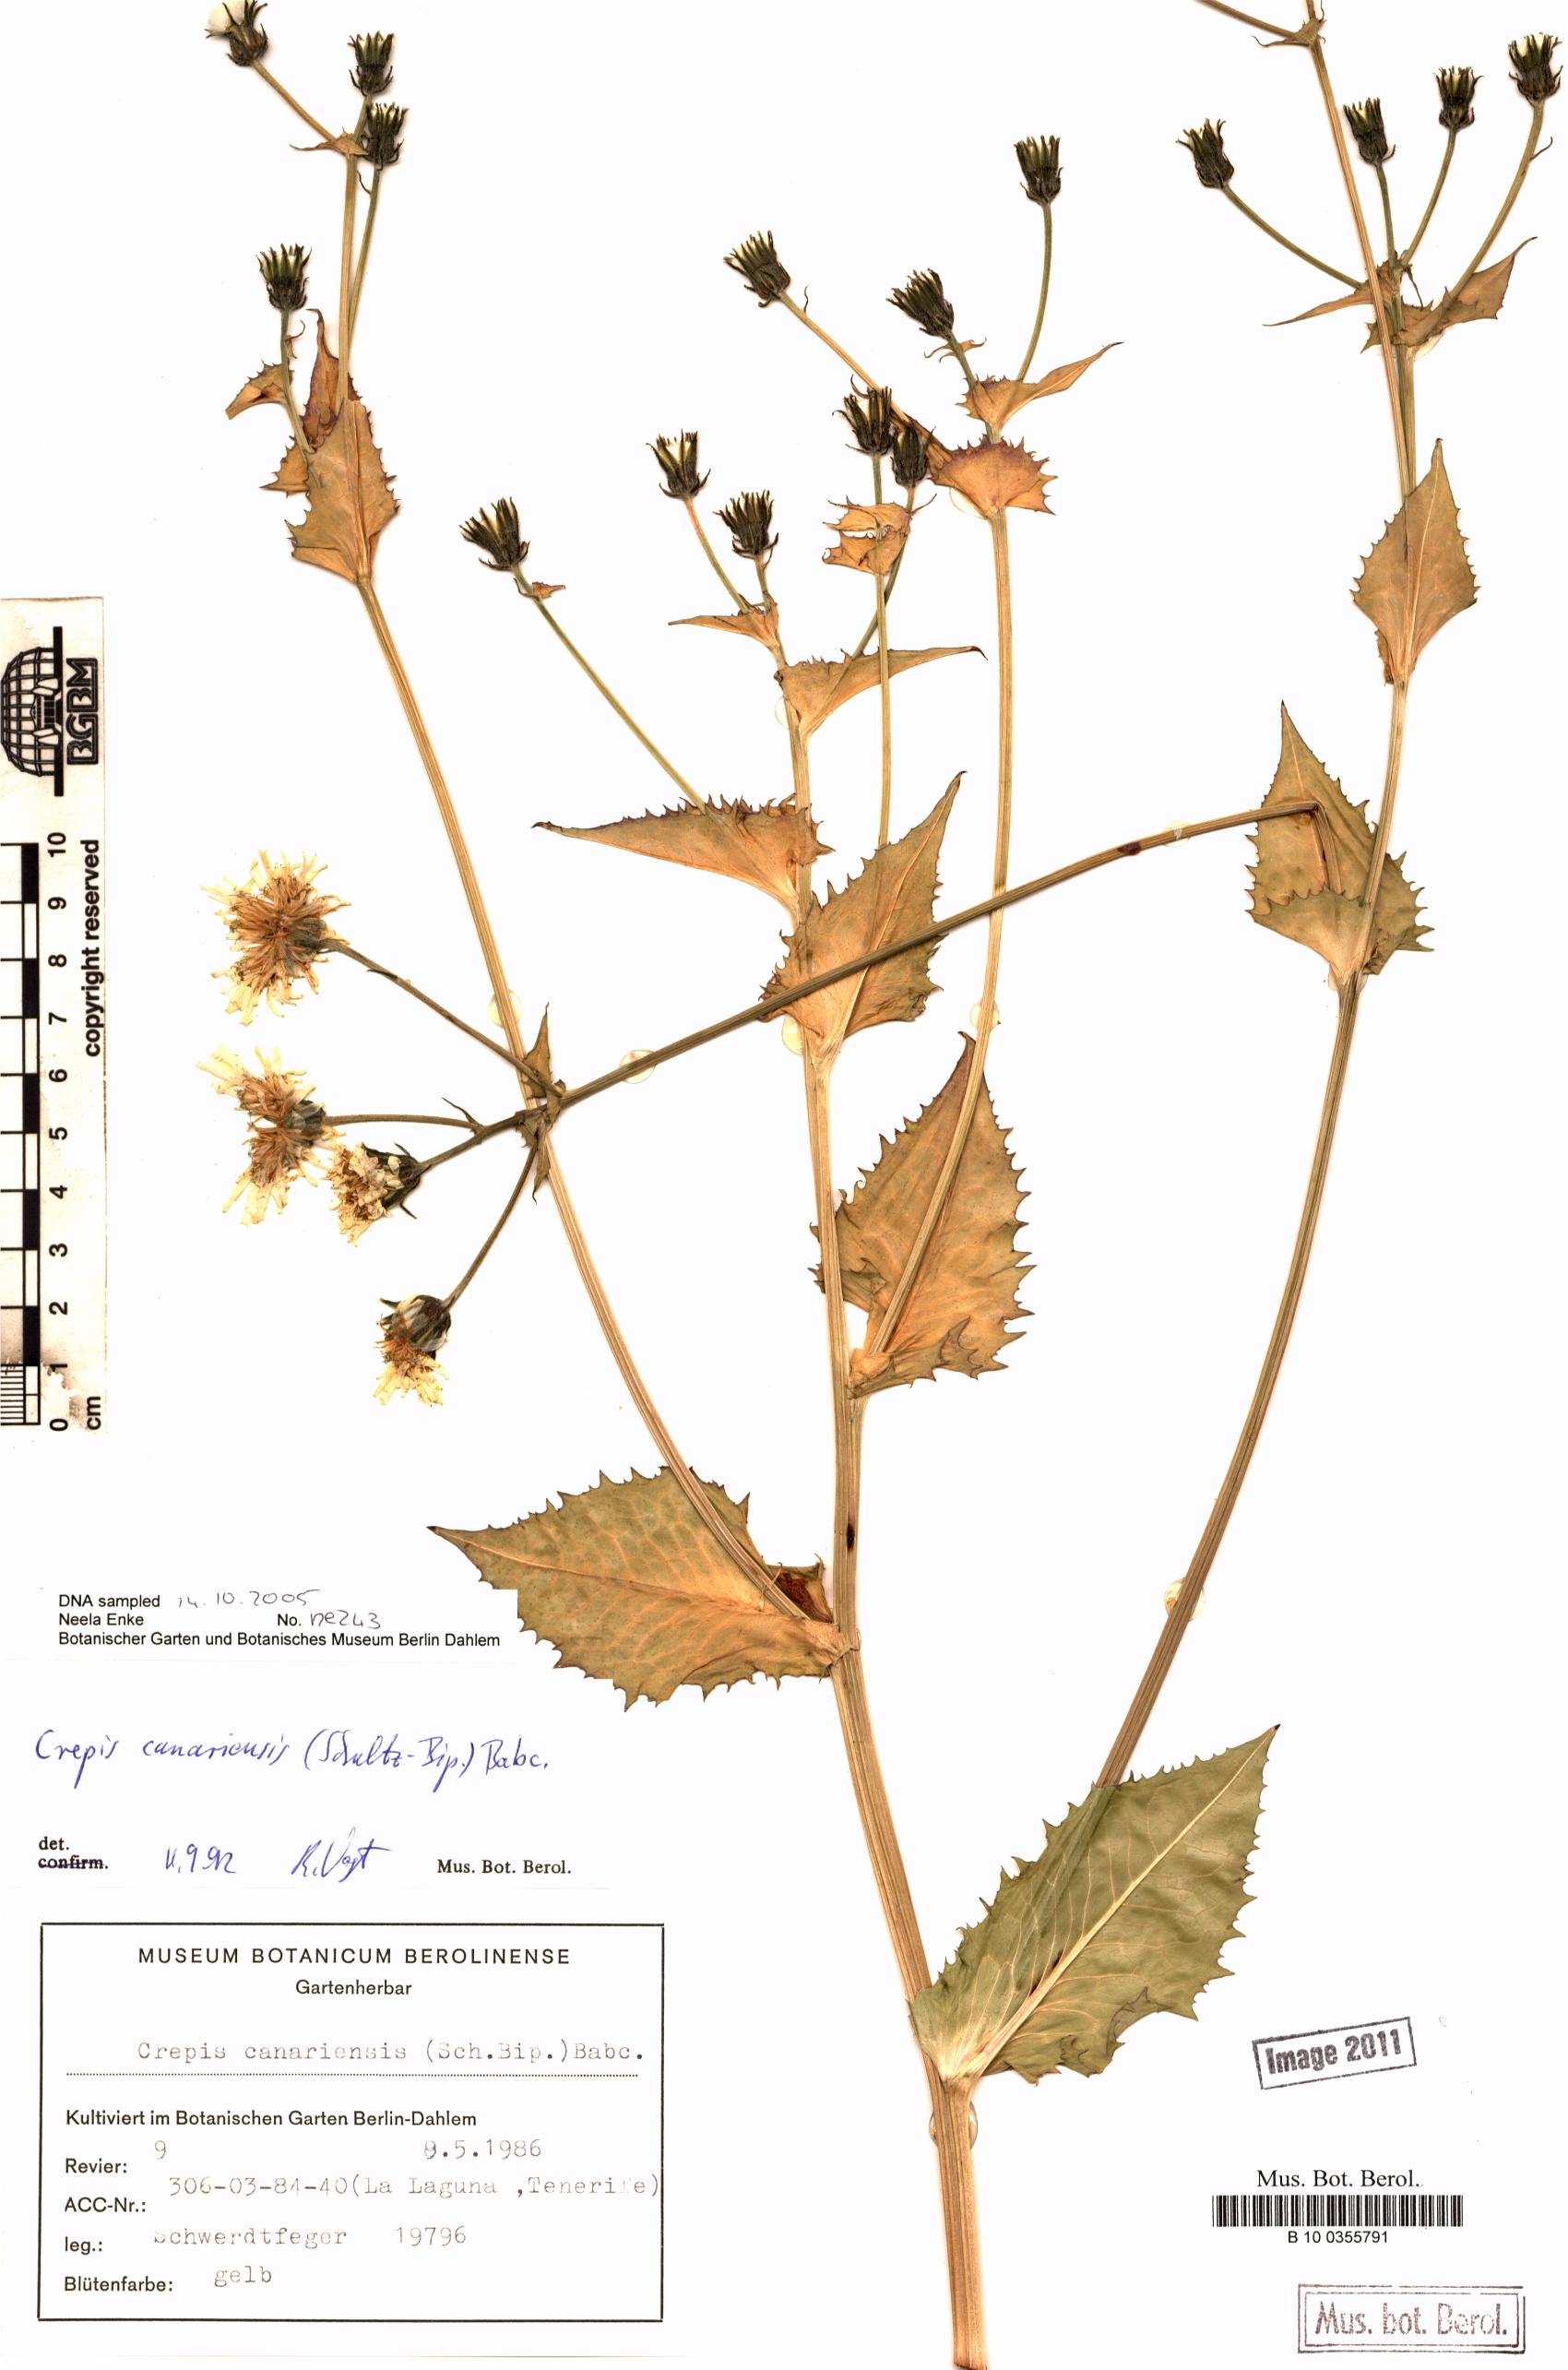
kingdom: Plantae
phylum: Tracheophyta
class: Magnoliopsida
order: Asterales
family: Asteraceae
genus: Crepis
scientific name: Crepis canariensis
